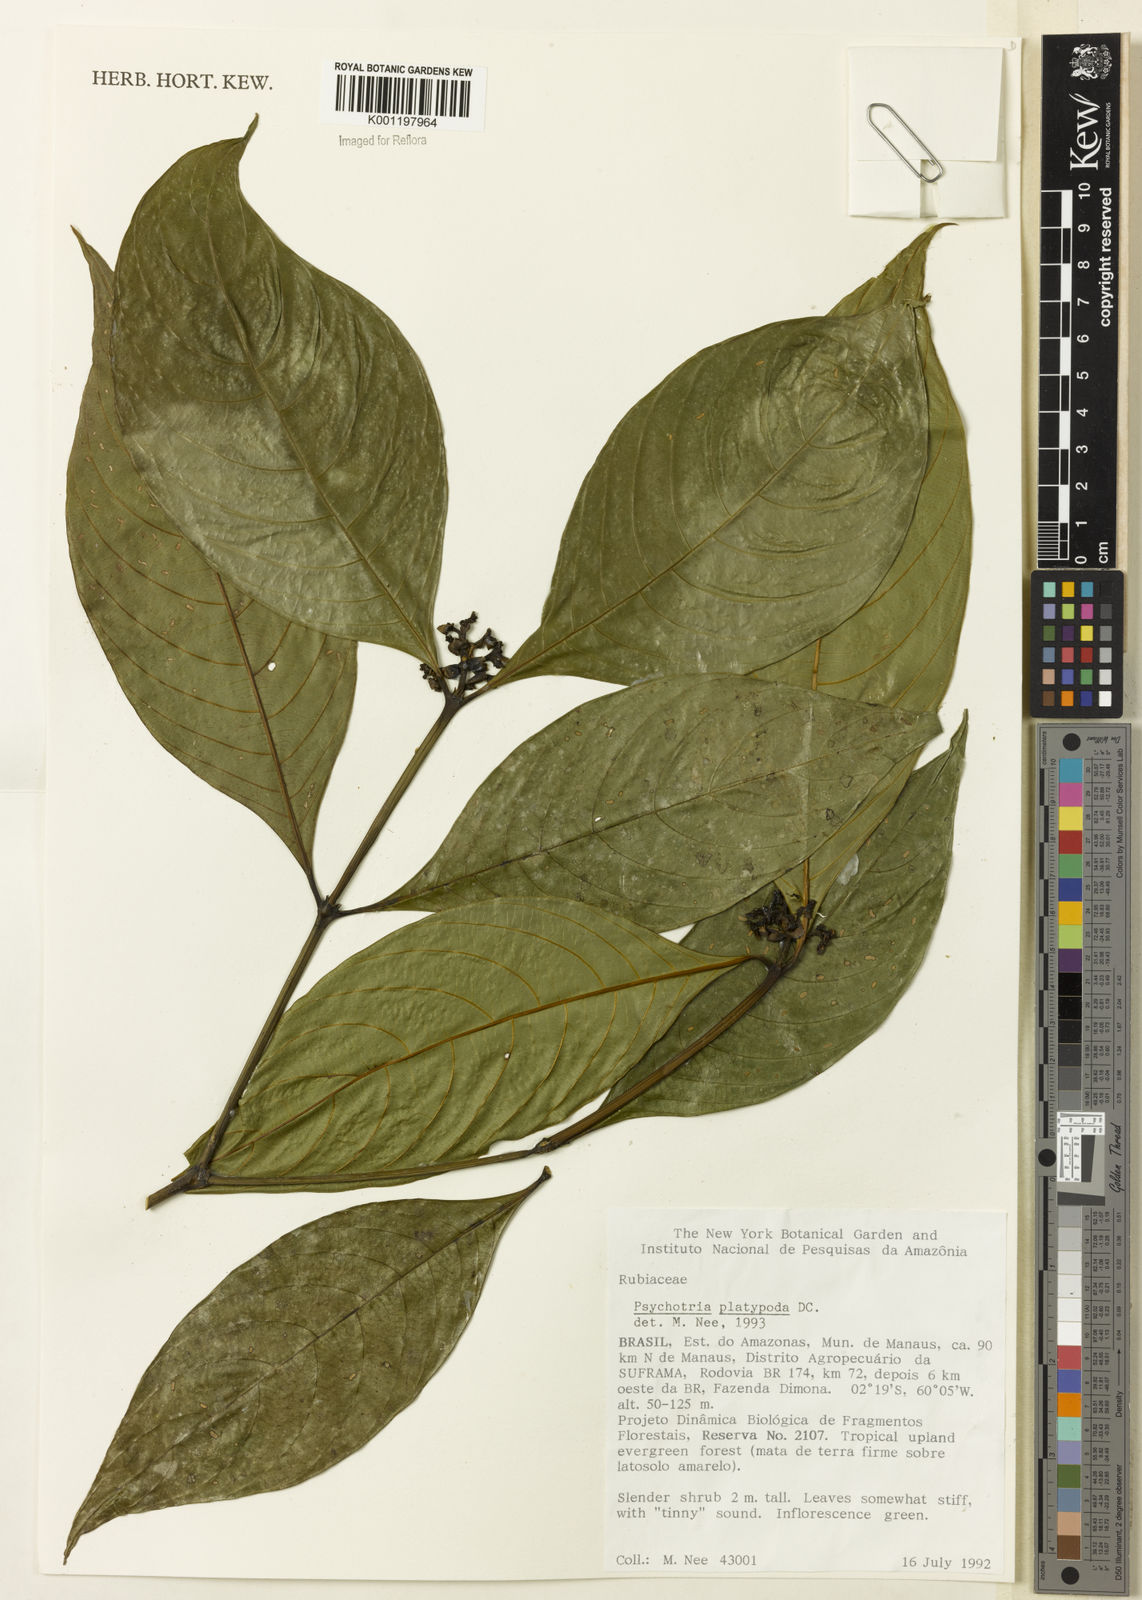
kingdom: Plantae
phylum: Tracheophyta
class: Magnoliopsida
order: Gentianales
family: Rubiaceae
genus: Palicourea
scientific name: Palicourea dichotoma
